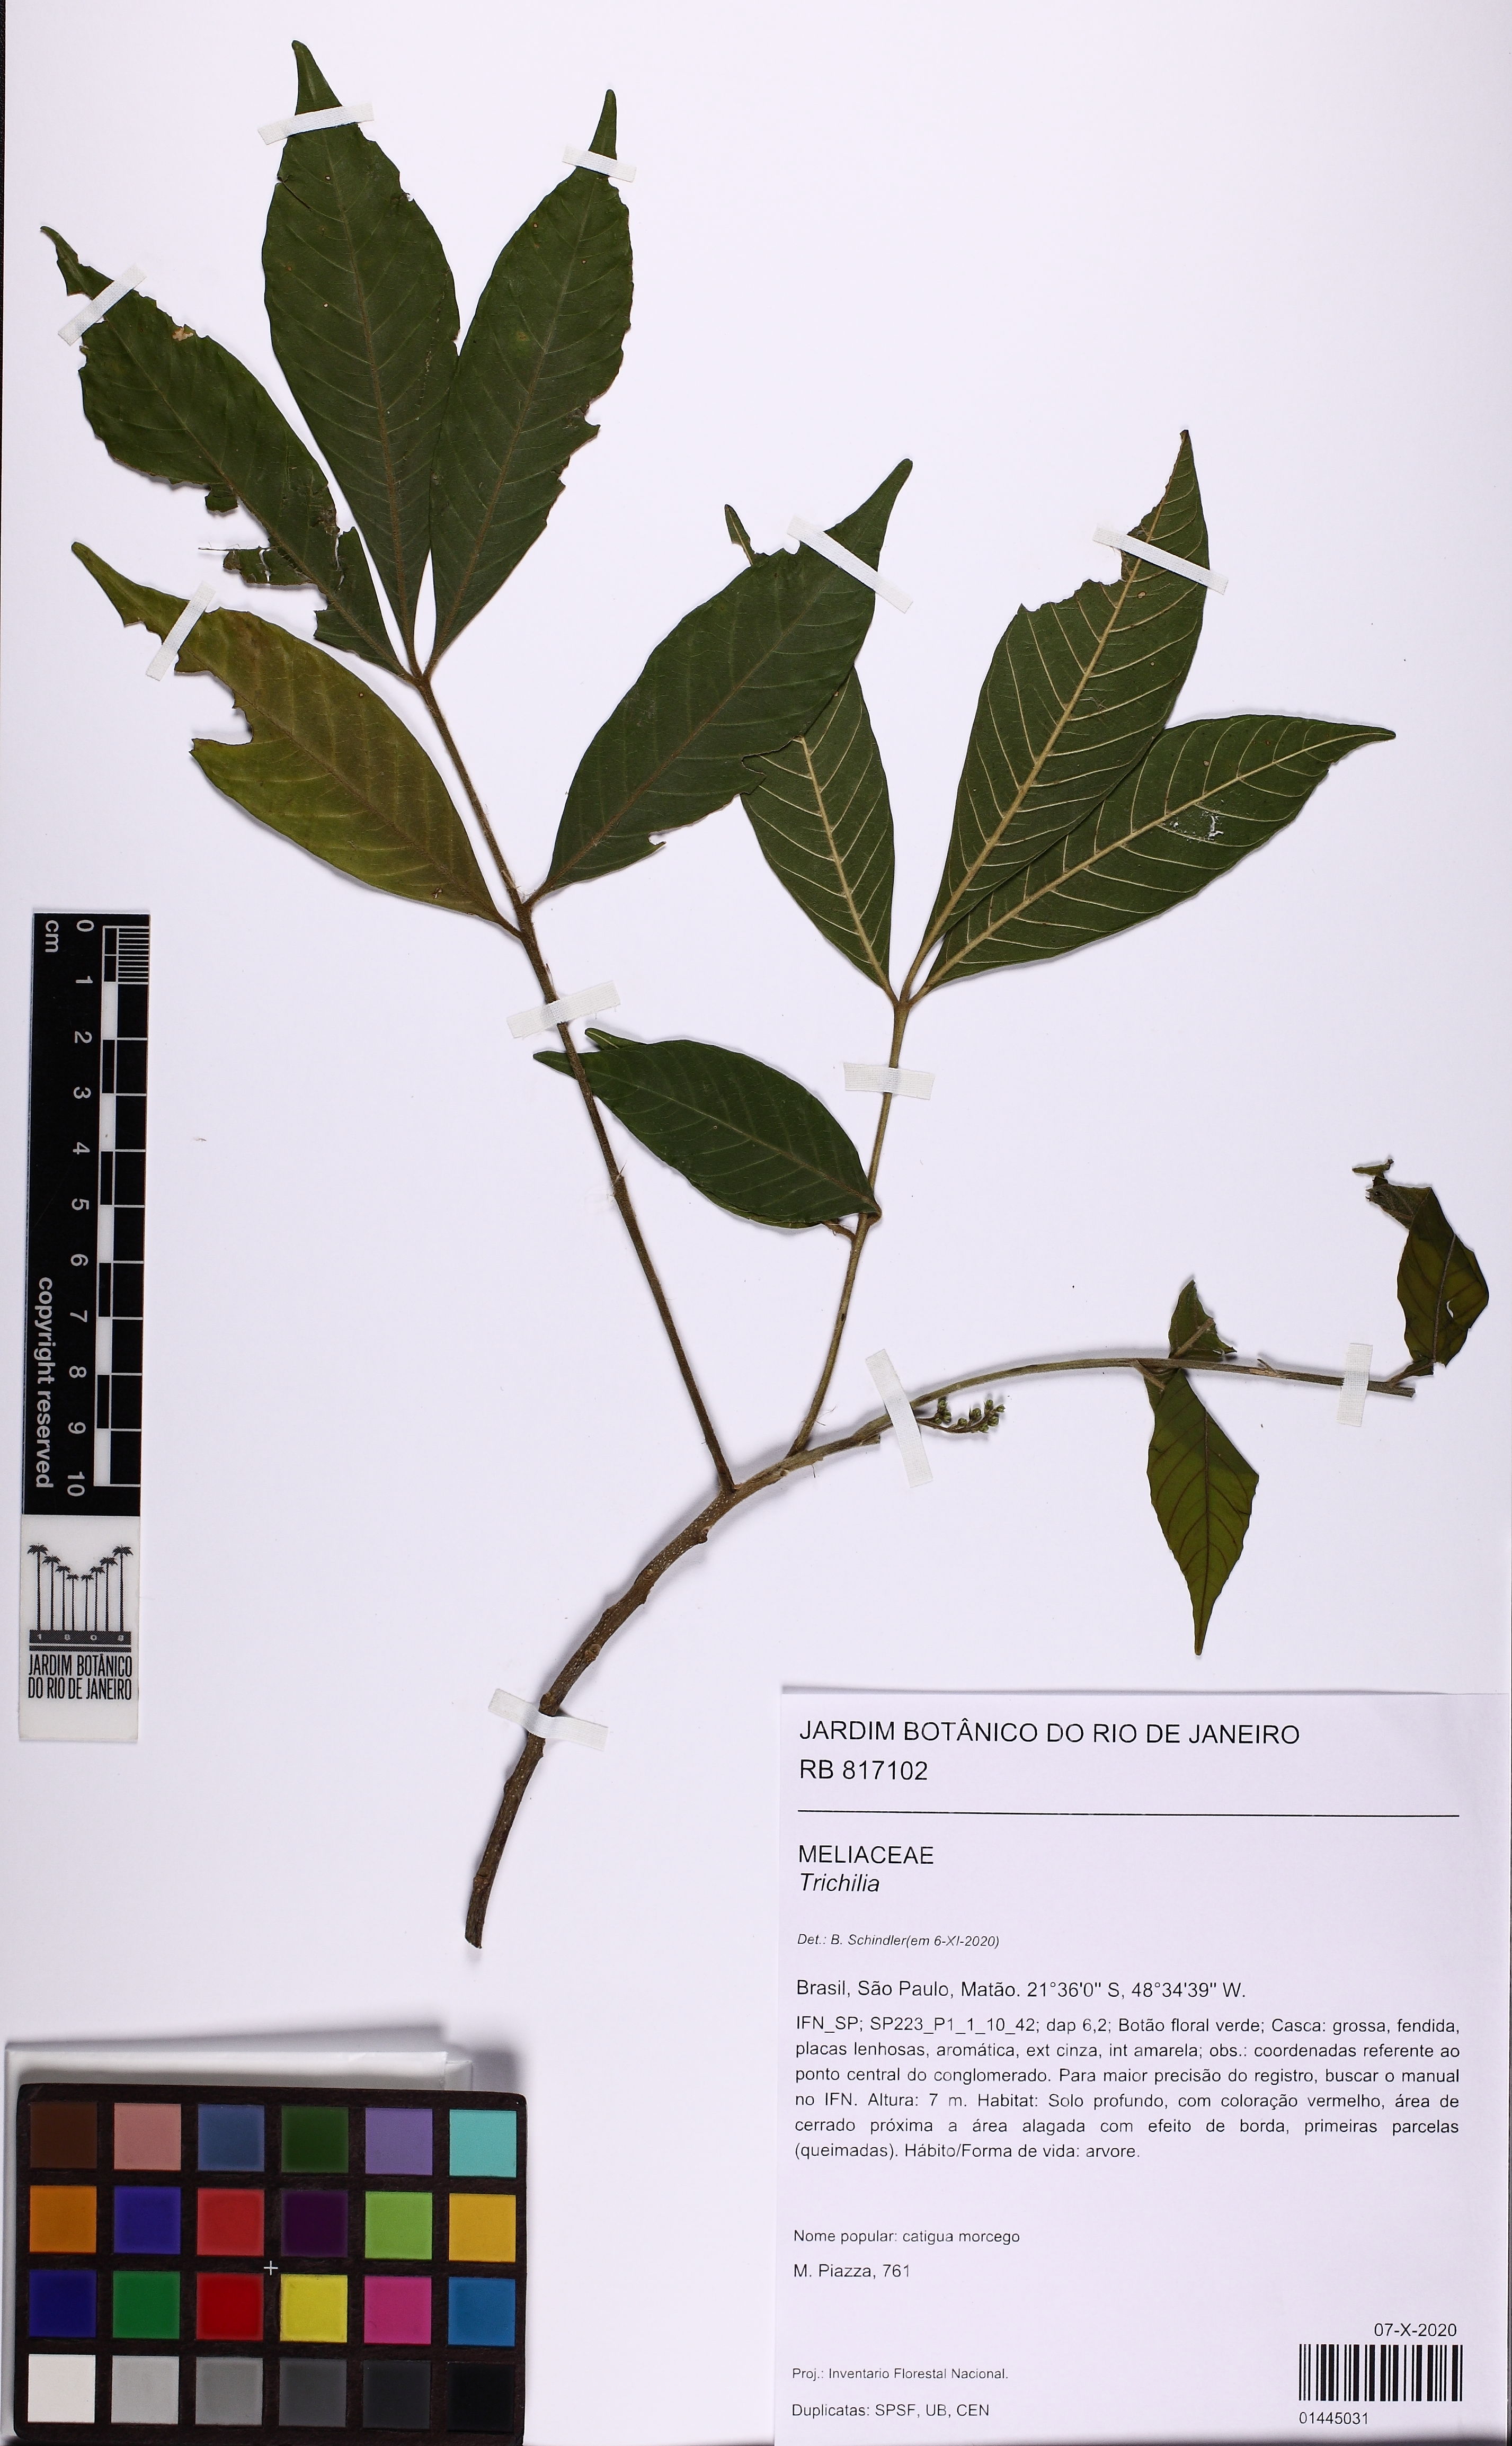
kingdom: Plantae
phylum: Tracheophyta
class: Magnoliopsida
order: Sapindales
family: Meliaceae
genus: Trichilia
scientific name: Trichilia
